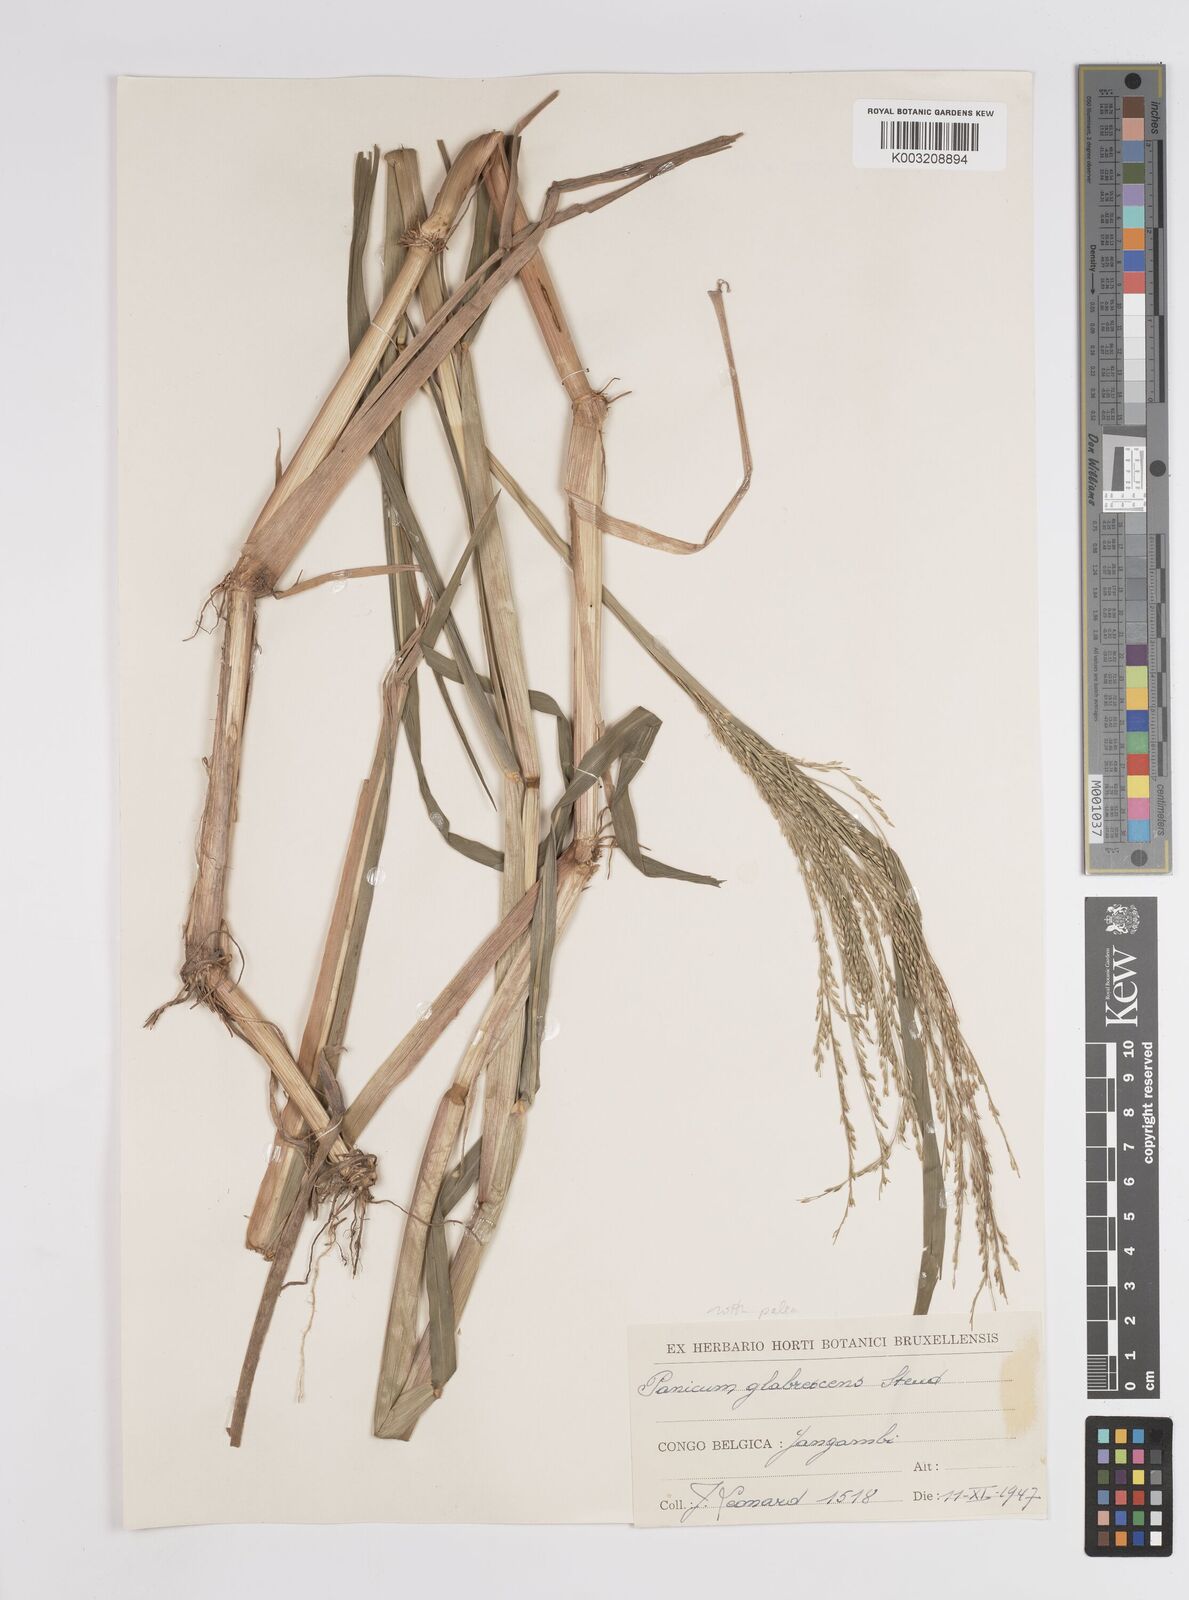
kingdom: Plantae
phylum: Tracheophyta
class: Liliopsida
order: Poales
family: Poaceae
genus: Panicum
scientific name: Panicum subalbidum
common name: Elbow buffalo grass
